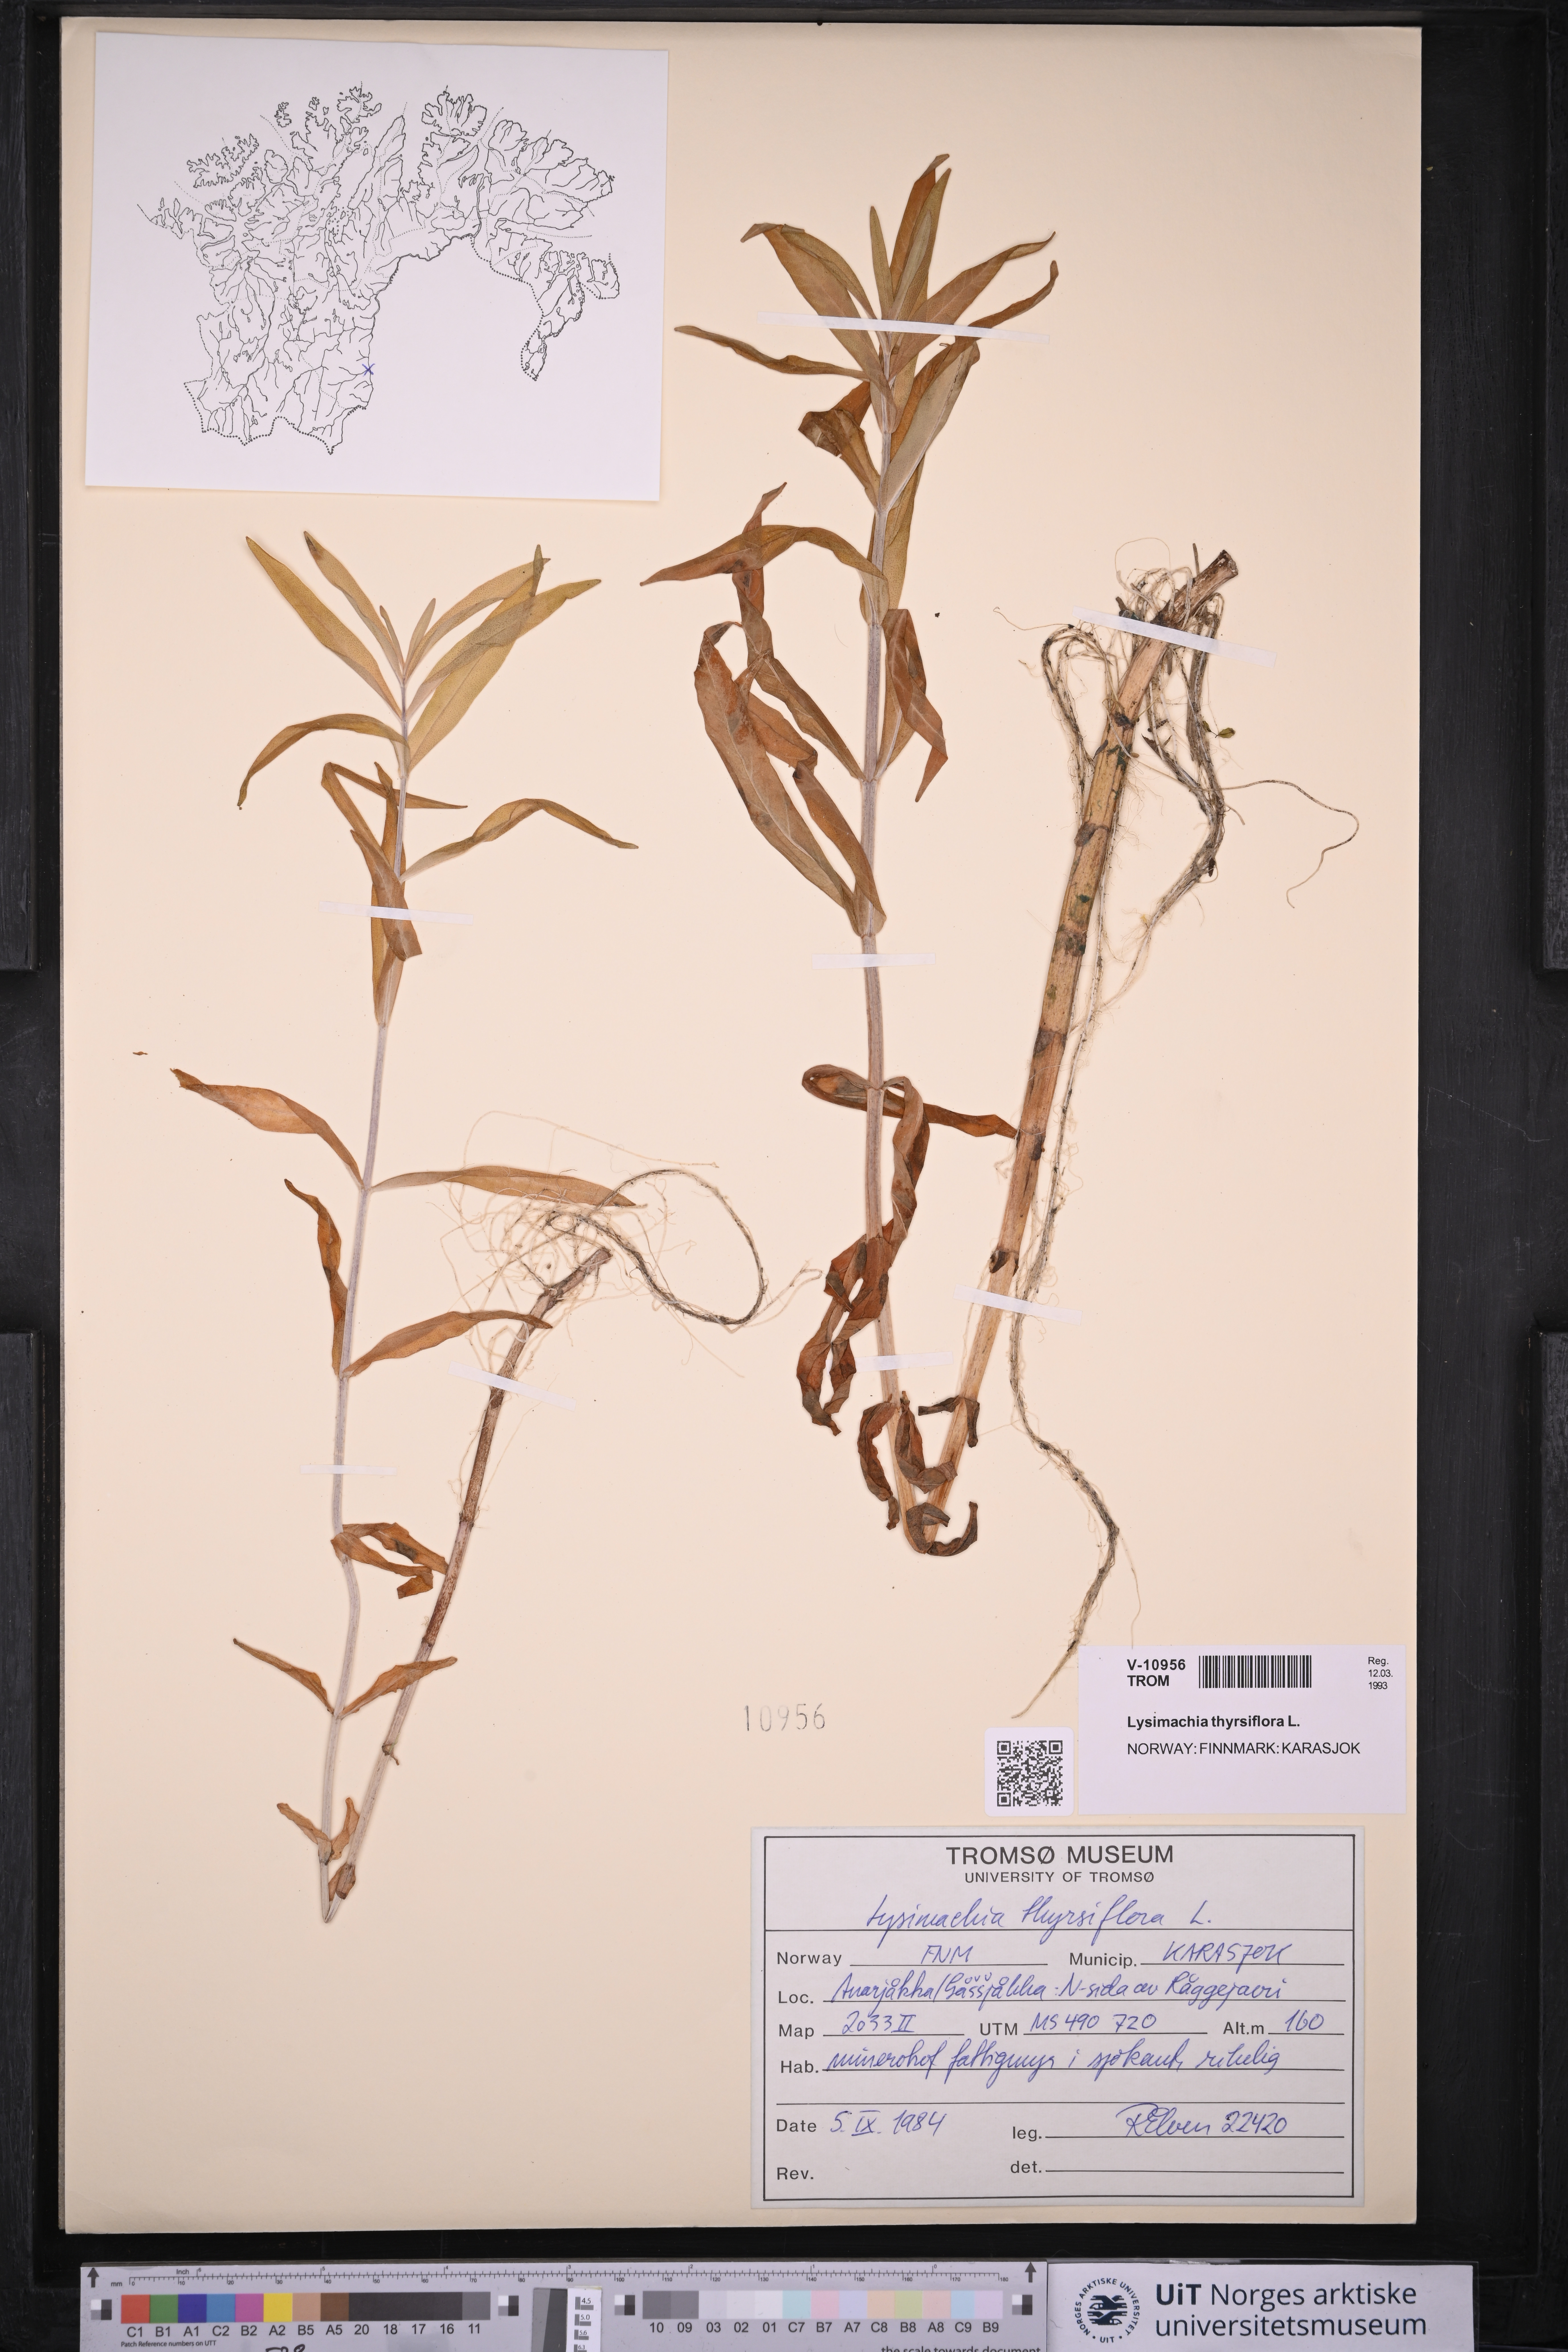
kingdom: Plantae
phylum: Tracheophyta
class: Magnoliopsida
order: Ericales
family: Primulaceae
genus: Lysimachia
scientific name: Lysimachia thyrsiflora
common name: Tufted loosestrife
